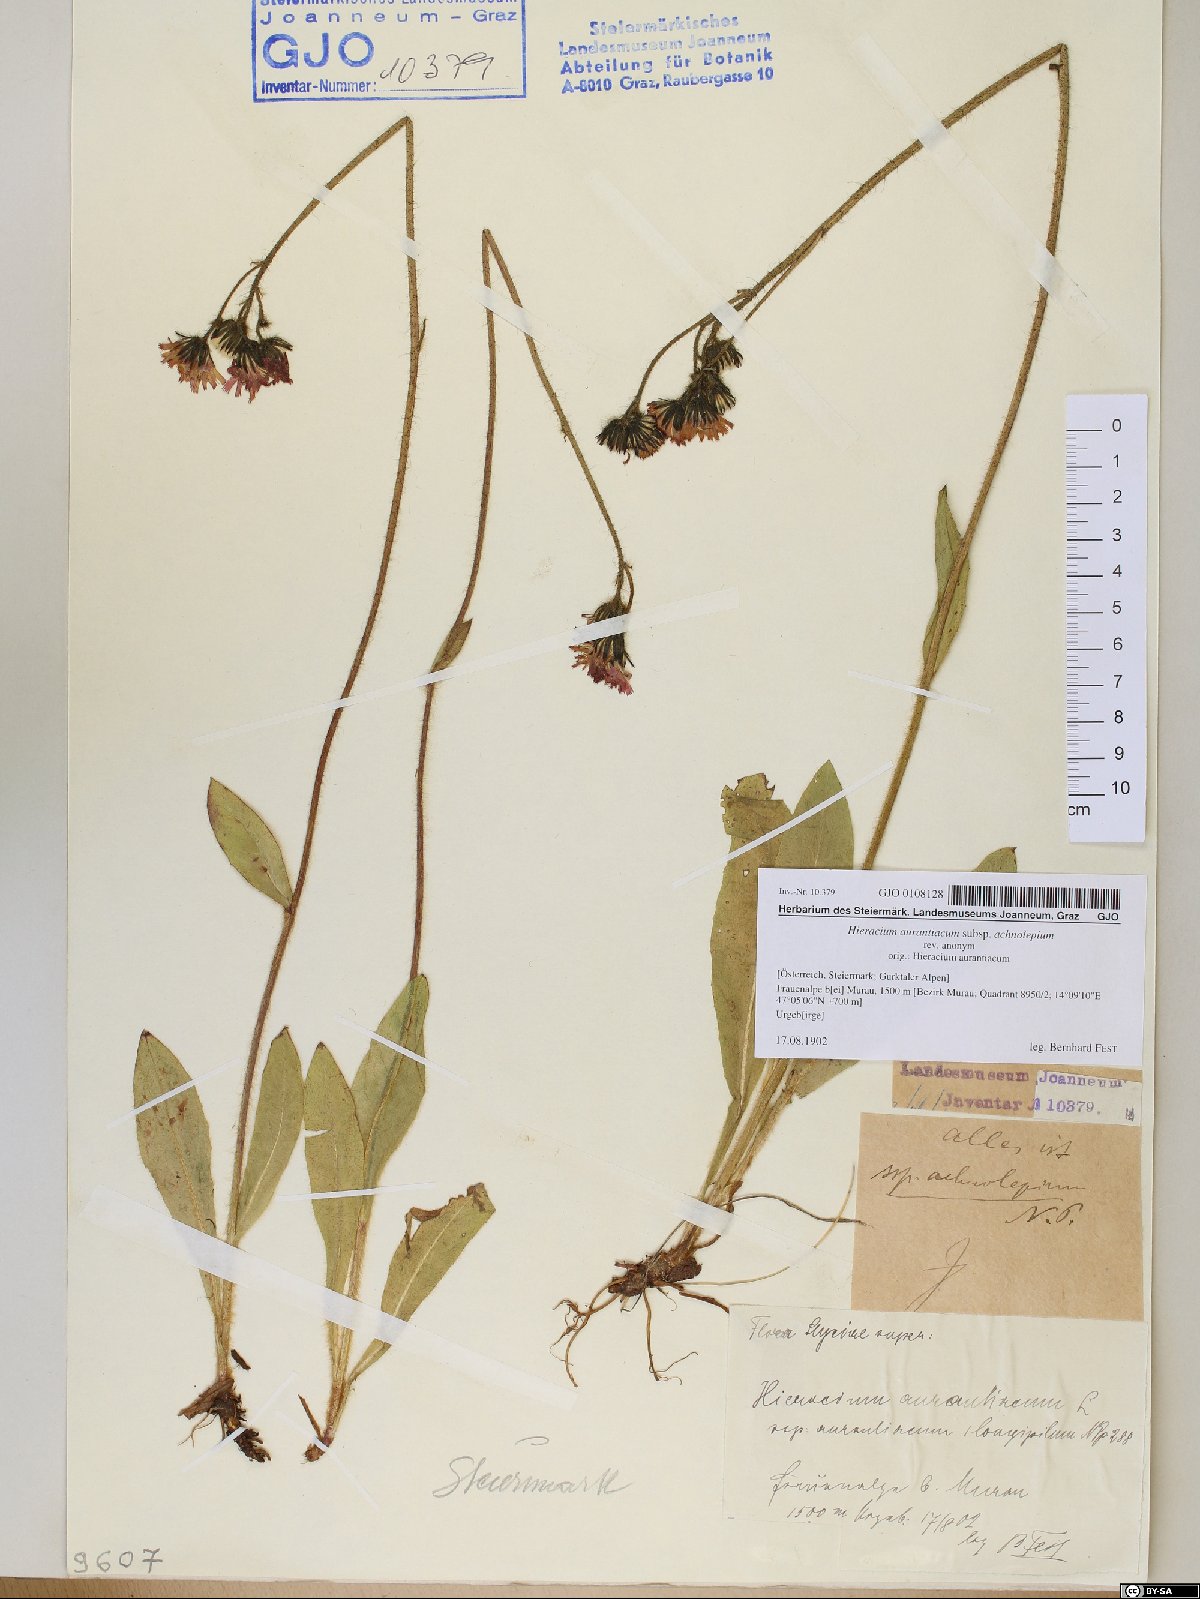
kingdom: Plantae
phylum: Tracheophyta
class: Magnoliopsida
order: Asterales
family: Asteraceae
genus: Pilosella
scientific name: Pilosella aurantiaca
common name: Fox-and-cubs
